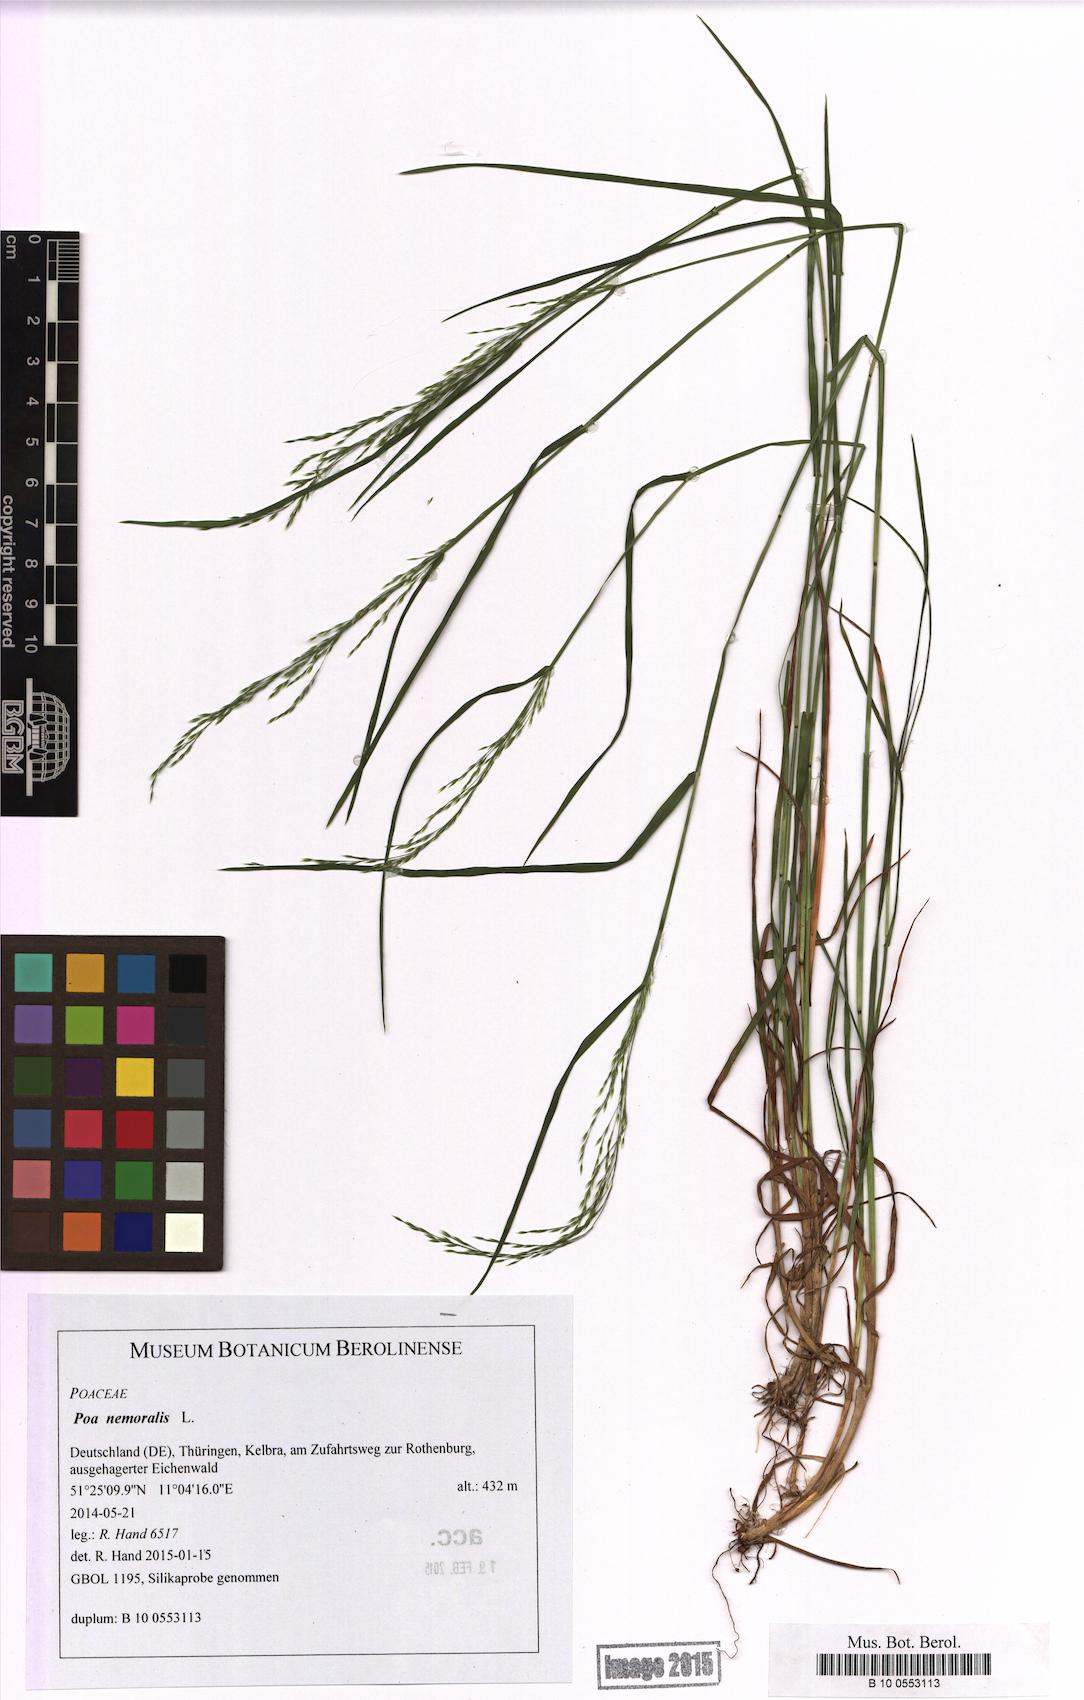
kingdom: Plantae
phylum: Tracheophyta
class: Liliopsida
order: Poales
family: Poaceae
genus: Poa
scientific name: Poa nemoralis
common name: Wood bluegrass
